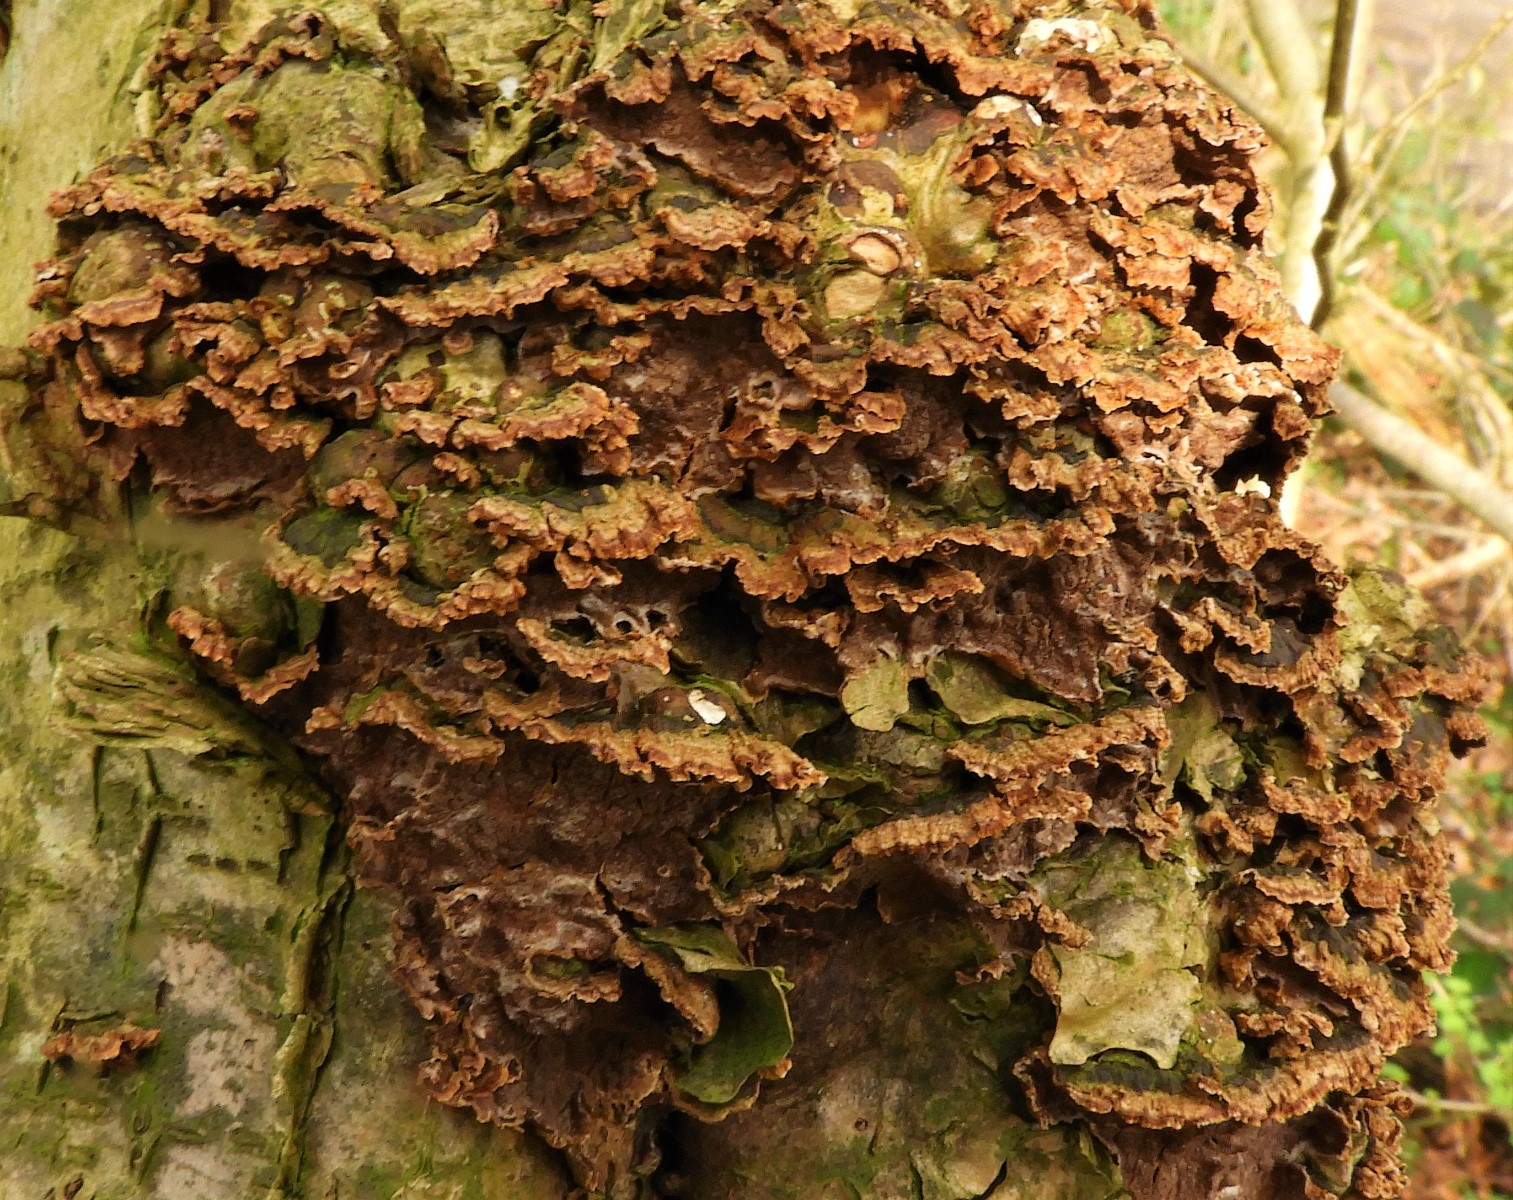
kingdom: Fungi
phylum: Basidiomycota
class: Agaricomycetes
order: Hymenochaetales
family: Hymenochaetaceae
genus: Hydnoporia
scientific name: Hydnoporia tabacina
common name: tobaksbrun ruslædersvamp
